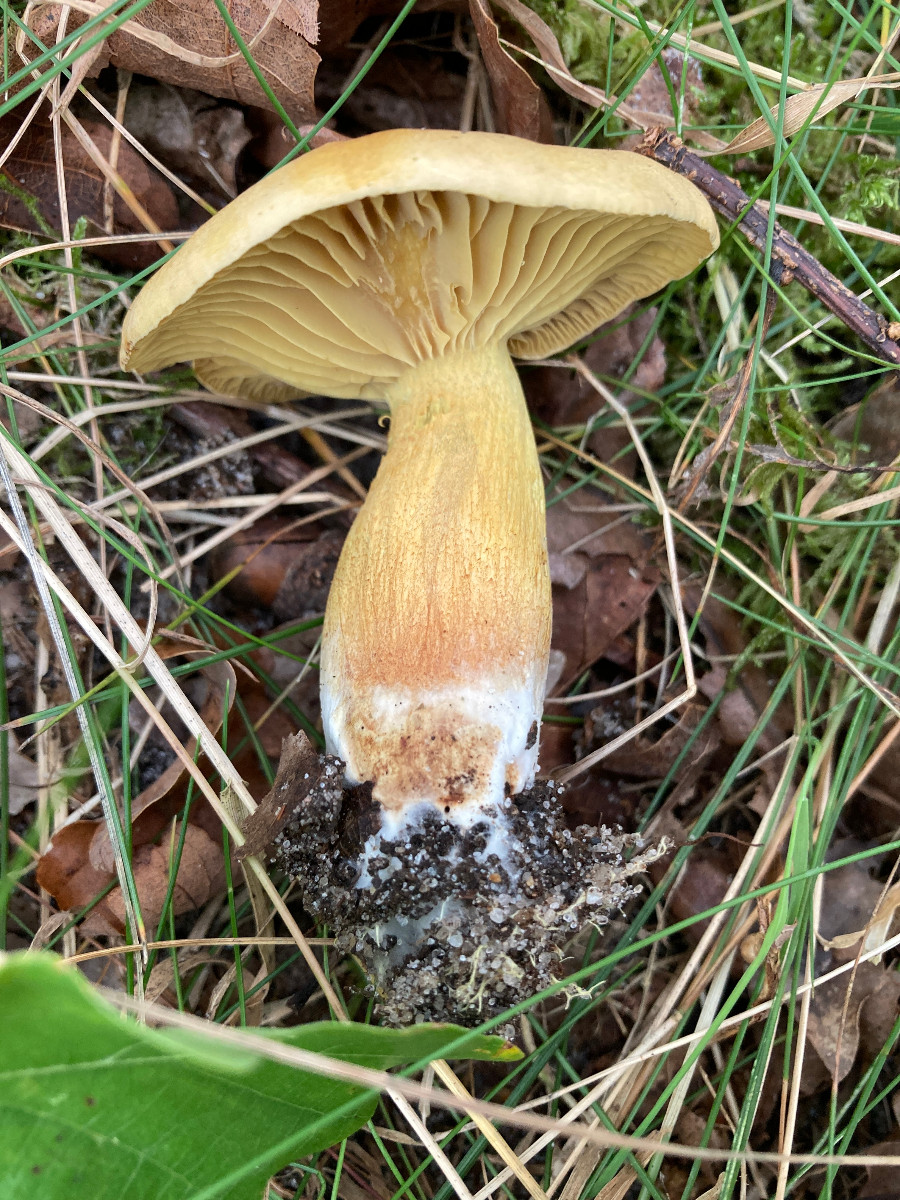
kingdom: Fungi
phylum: Basidiomycota
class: Agaricomycetes
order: Agaricales
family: Tricholomataceae
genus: Tricholoma
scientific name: Tricholoma sulphureum
